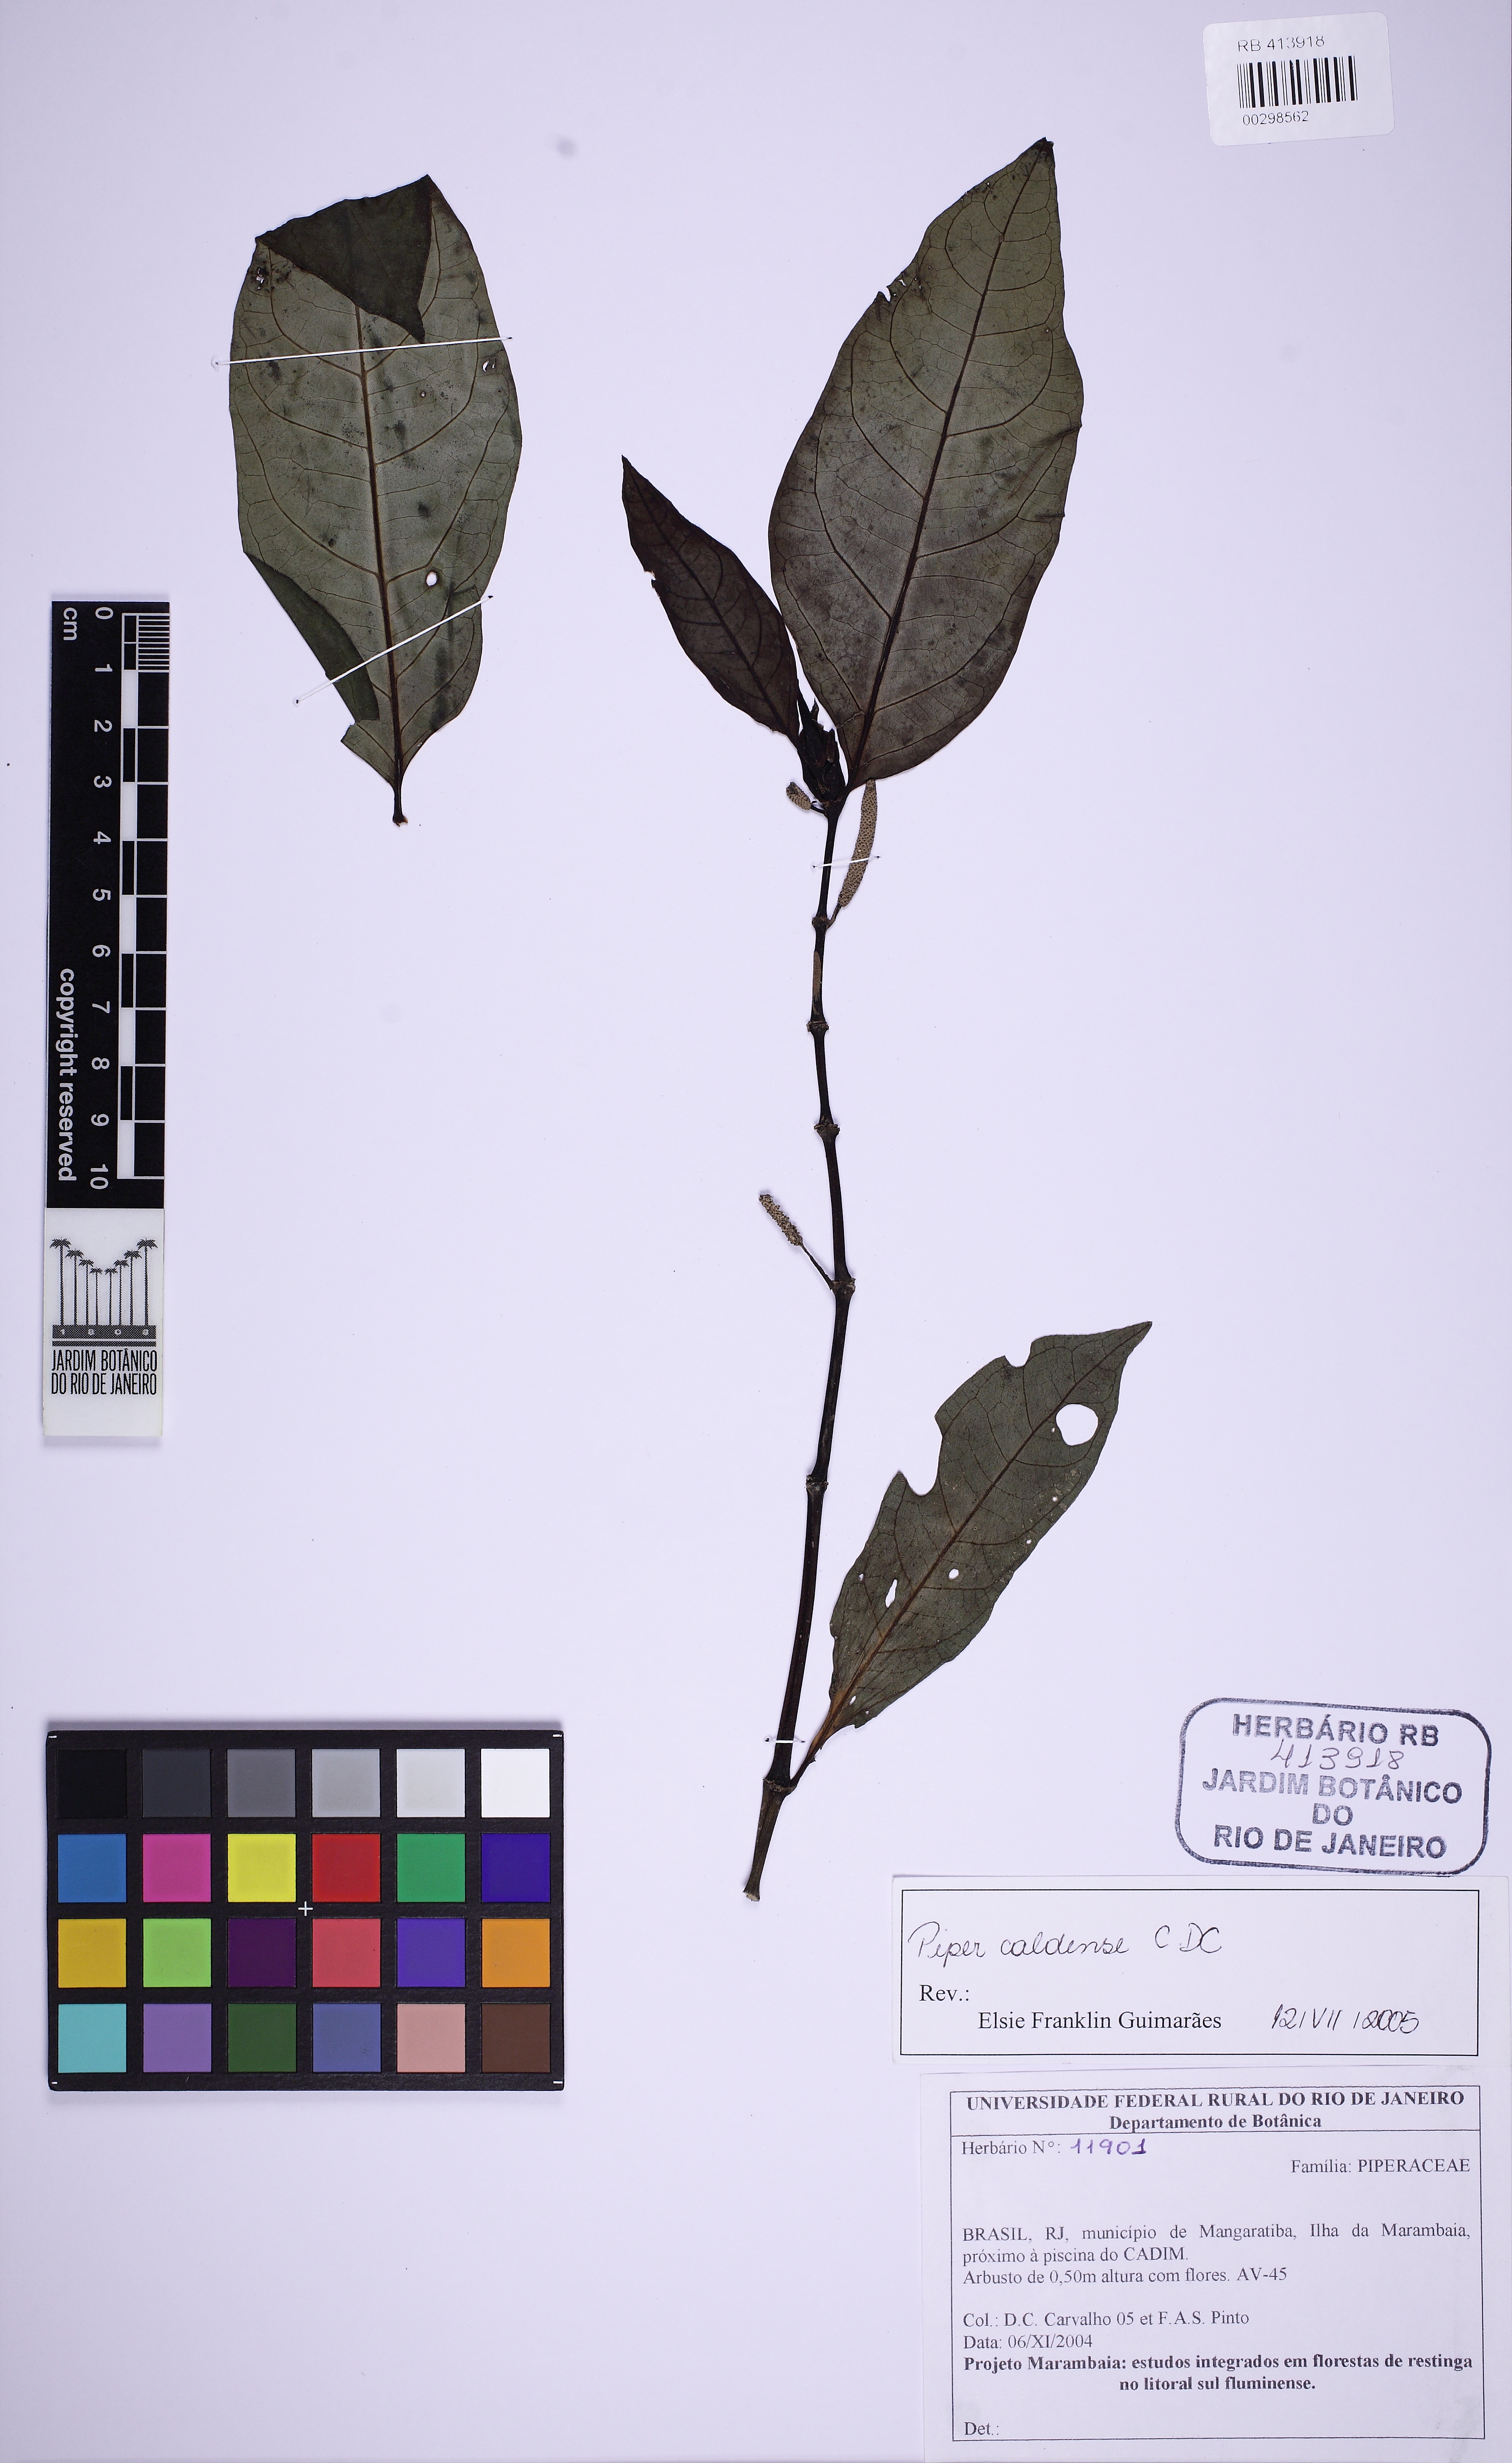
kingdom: Plantae
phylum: Tracheophyta
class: Magnoliopsida
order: Piperales
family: Piperaceae
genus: Piper
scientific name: Piper caldense
